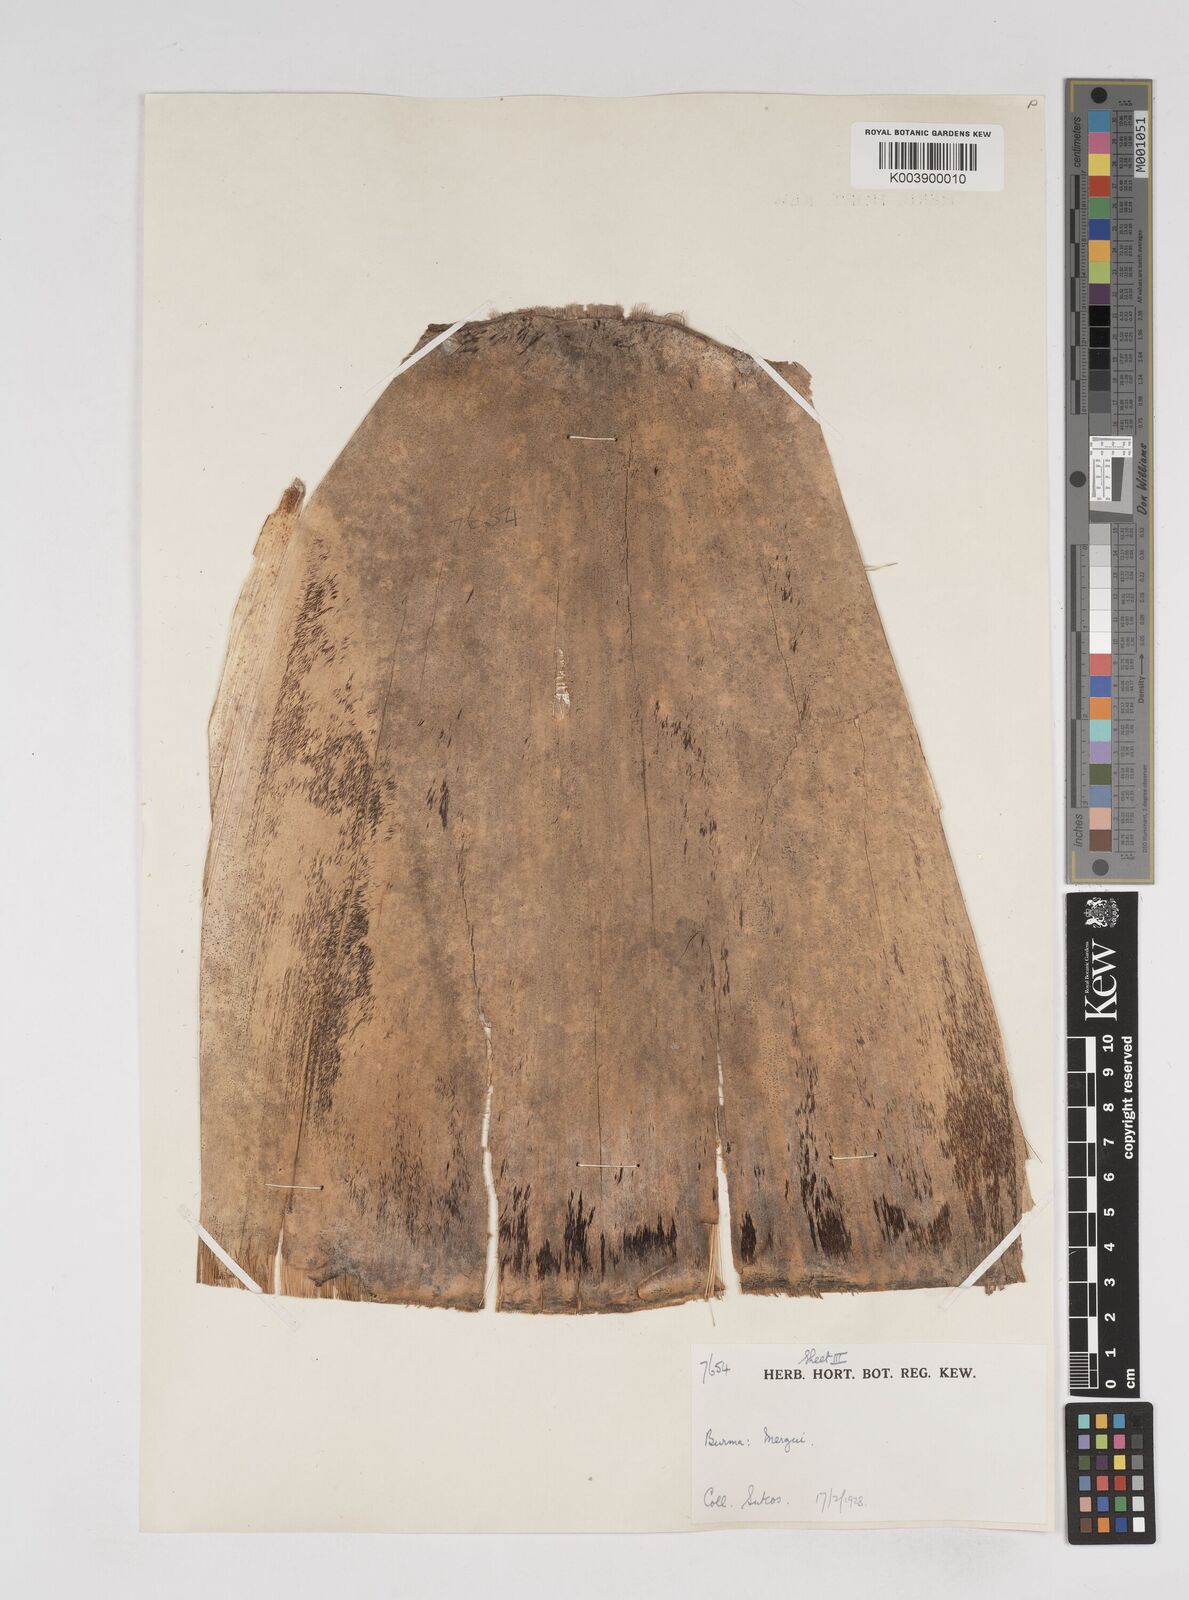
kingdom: Plantae
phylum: Tracheophyta
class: Liliopsida
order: Poales
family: Poaceae
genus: Gigantochloa
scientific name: Gigantochloa
